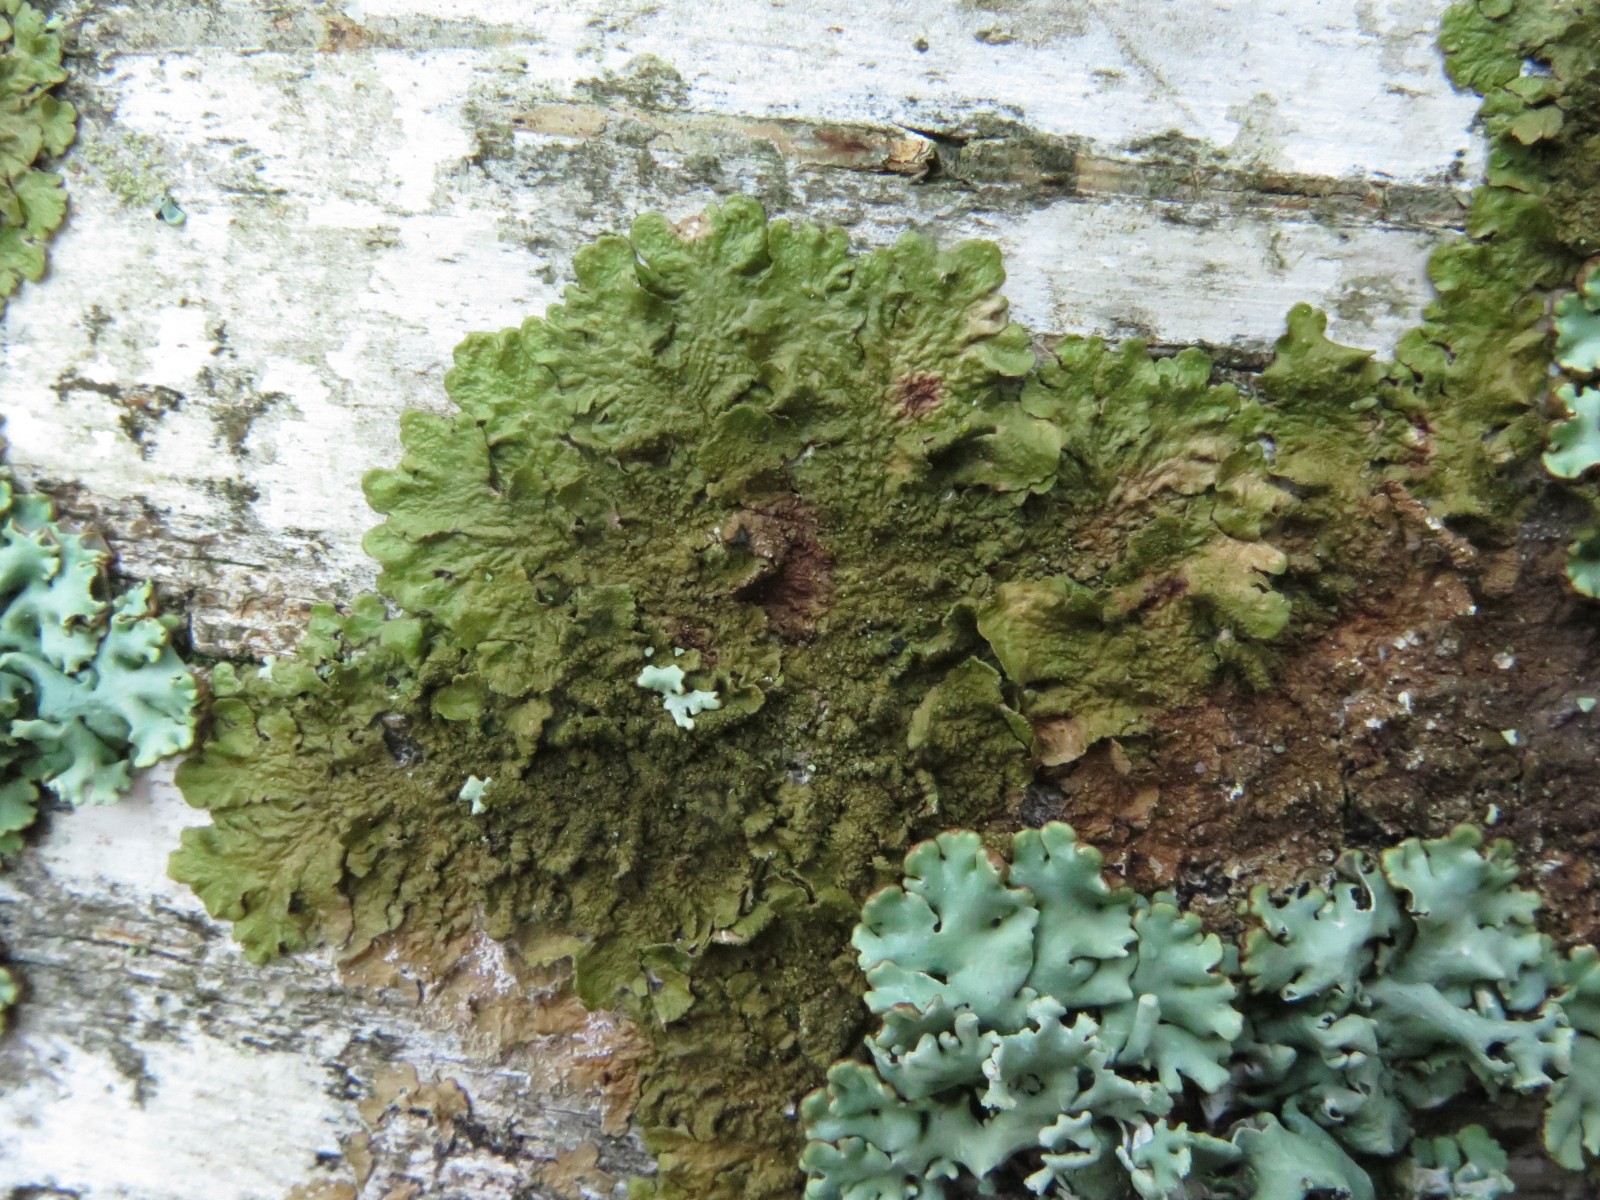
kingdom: Fungi
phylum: Ascomycota
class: Lecanoromycetes
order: Lecanorales
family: Parmeliaceae
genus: Melanelixia
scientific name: Melanelixia subaurifera
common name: guldpudret skållav
